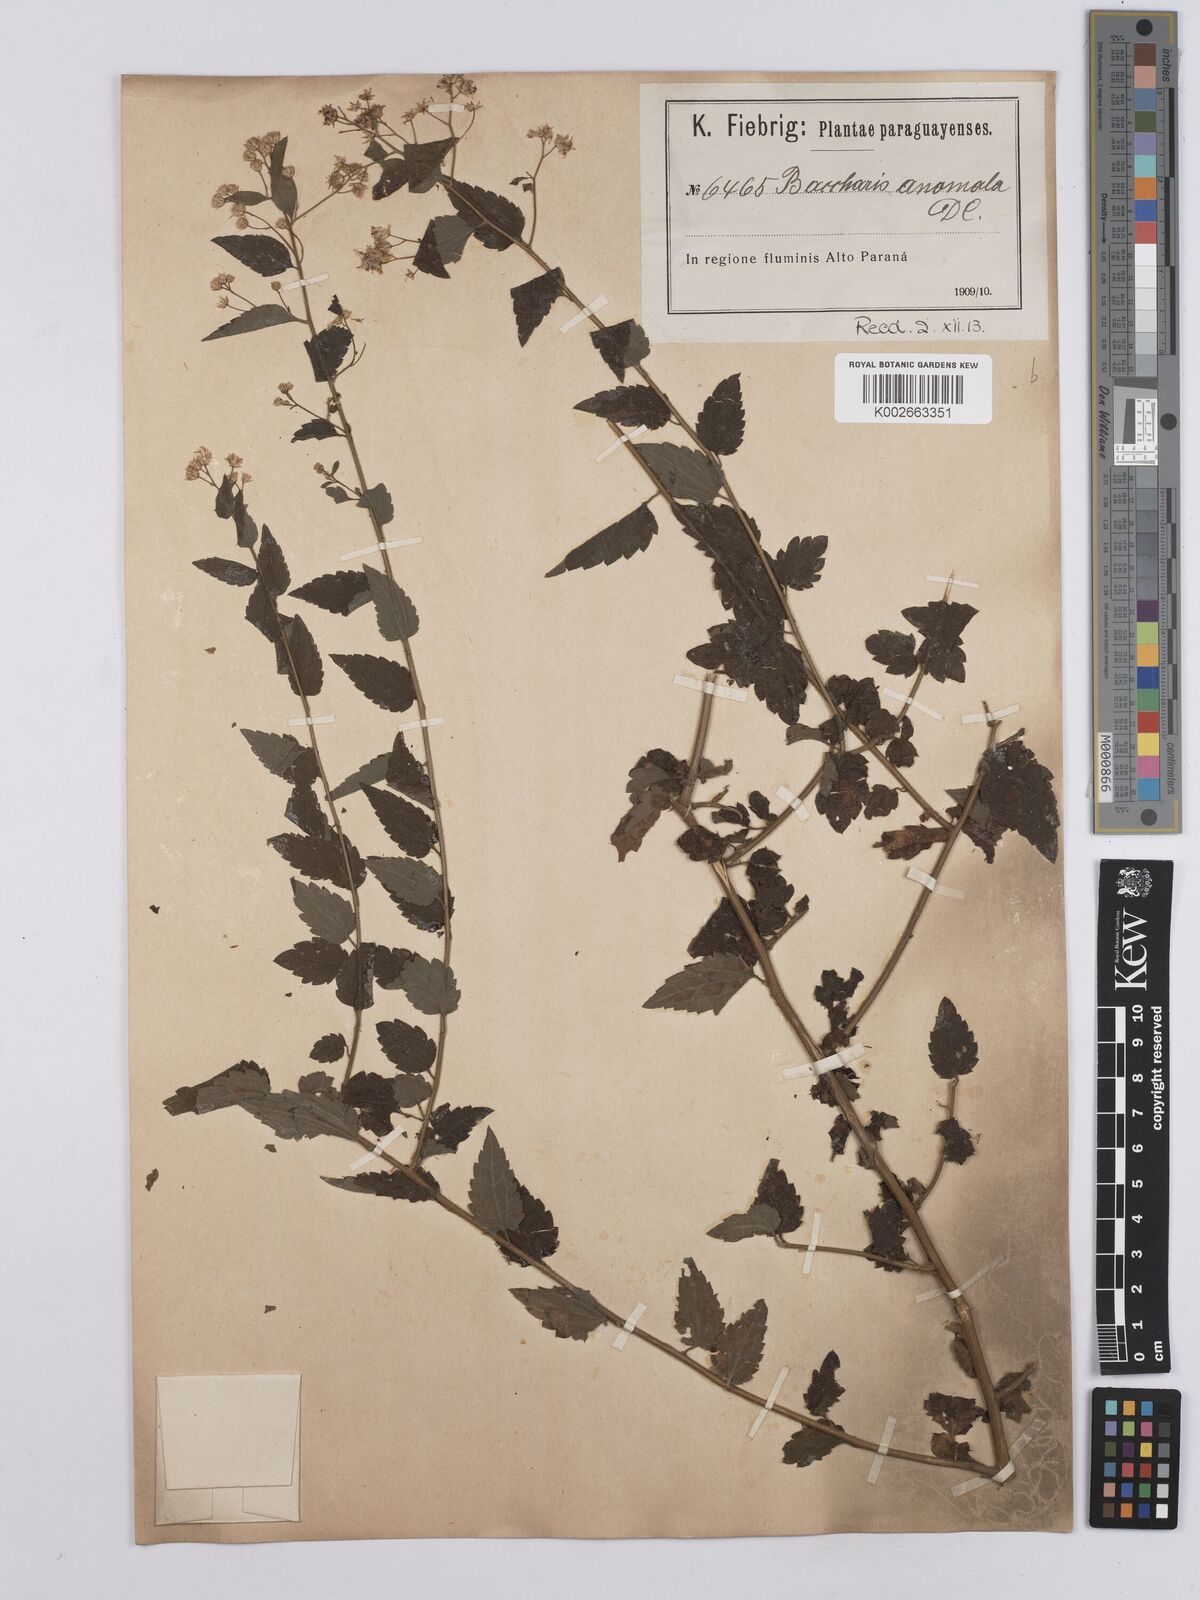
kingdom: Plantae
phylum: Tracheophyta
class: Magnoliopsida
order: Asterales
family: Asteraceae
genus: Baccharis
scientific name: Baccharis anomala
